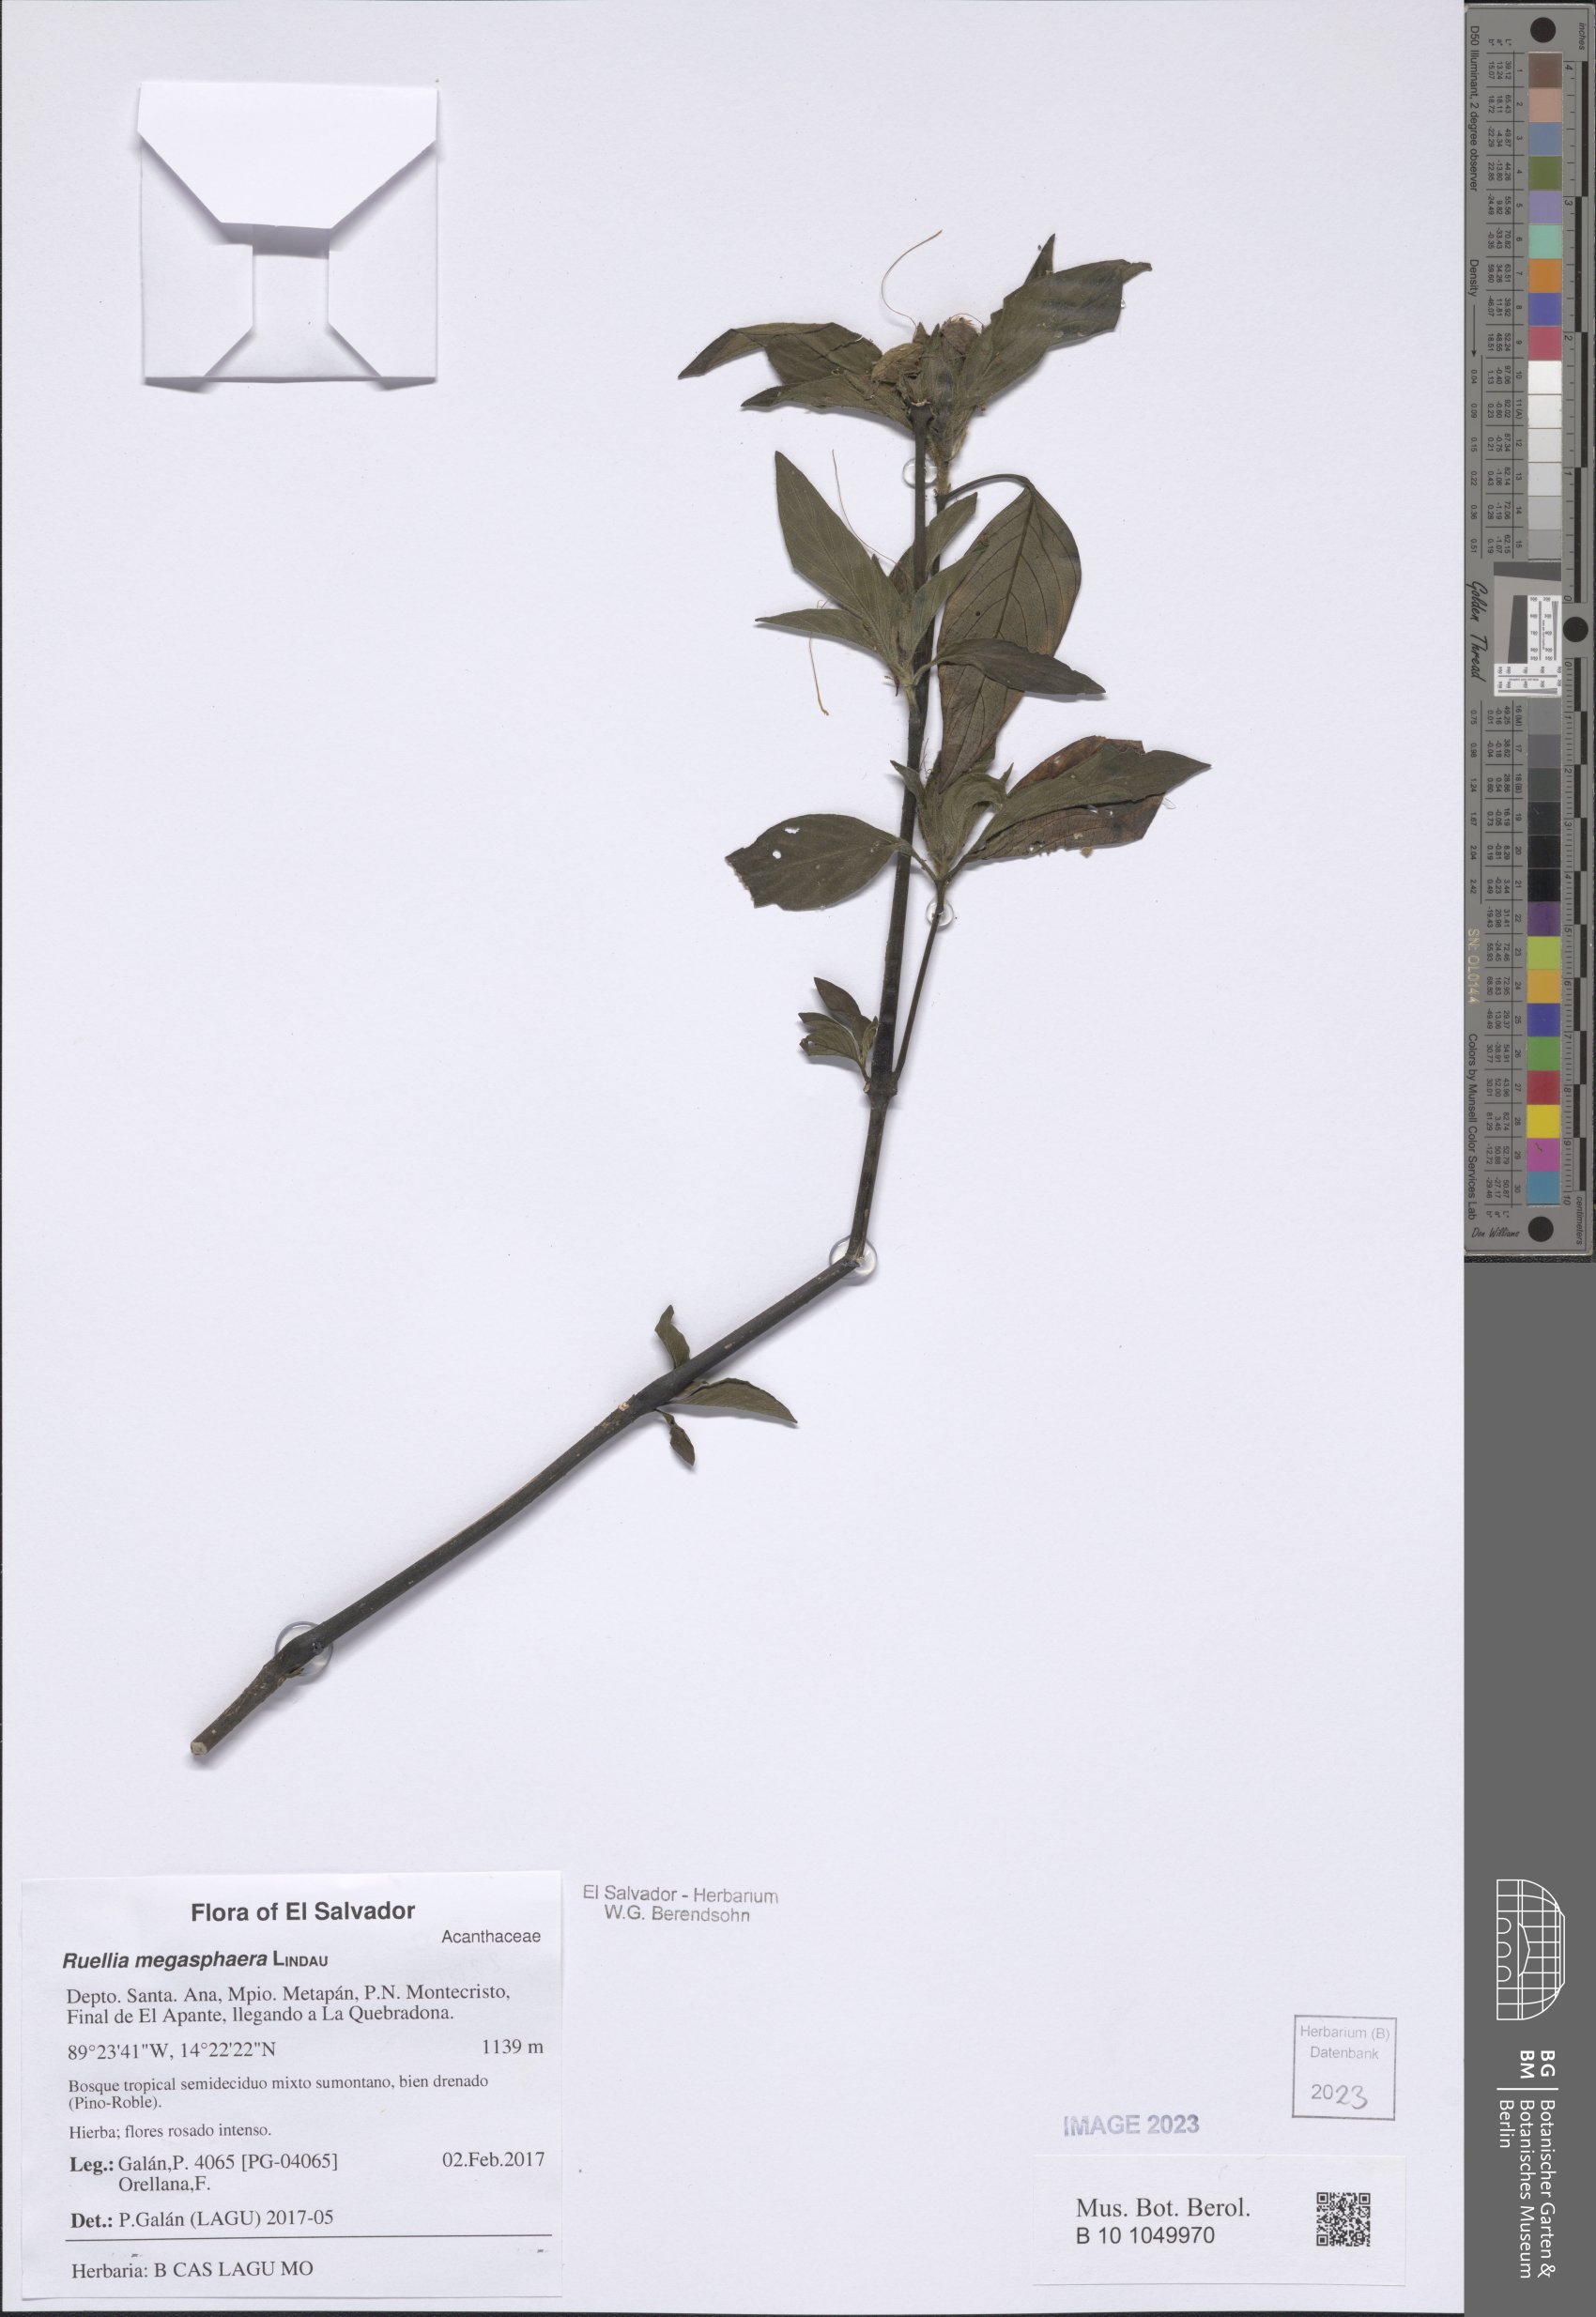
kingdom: Plantae
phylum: Tracheophyta
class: Magnoliopsida
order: Lamiales
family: Acanthaceae
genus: Ruellia
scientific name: Ruellia megasphaera
